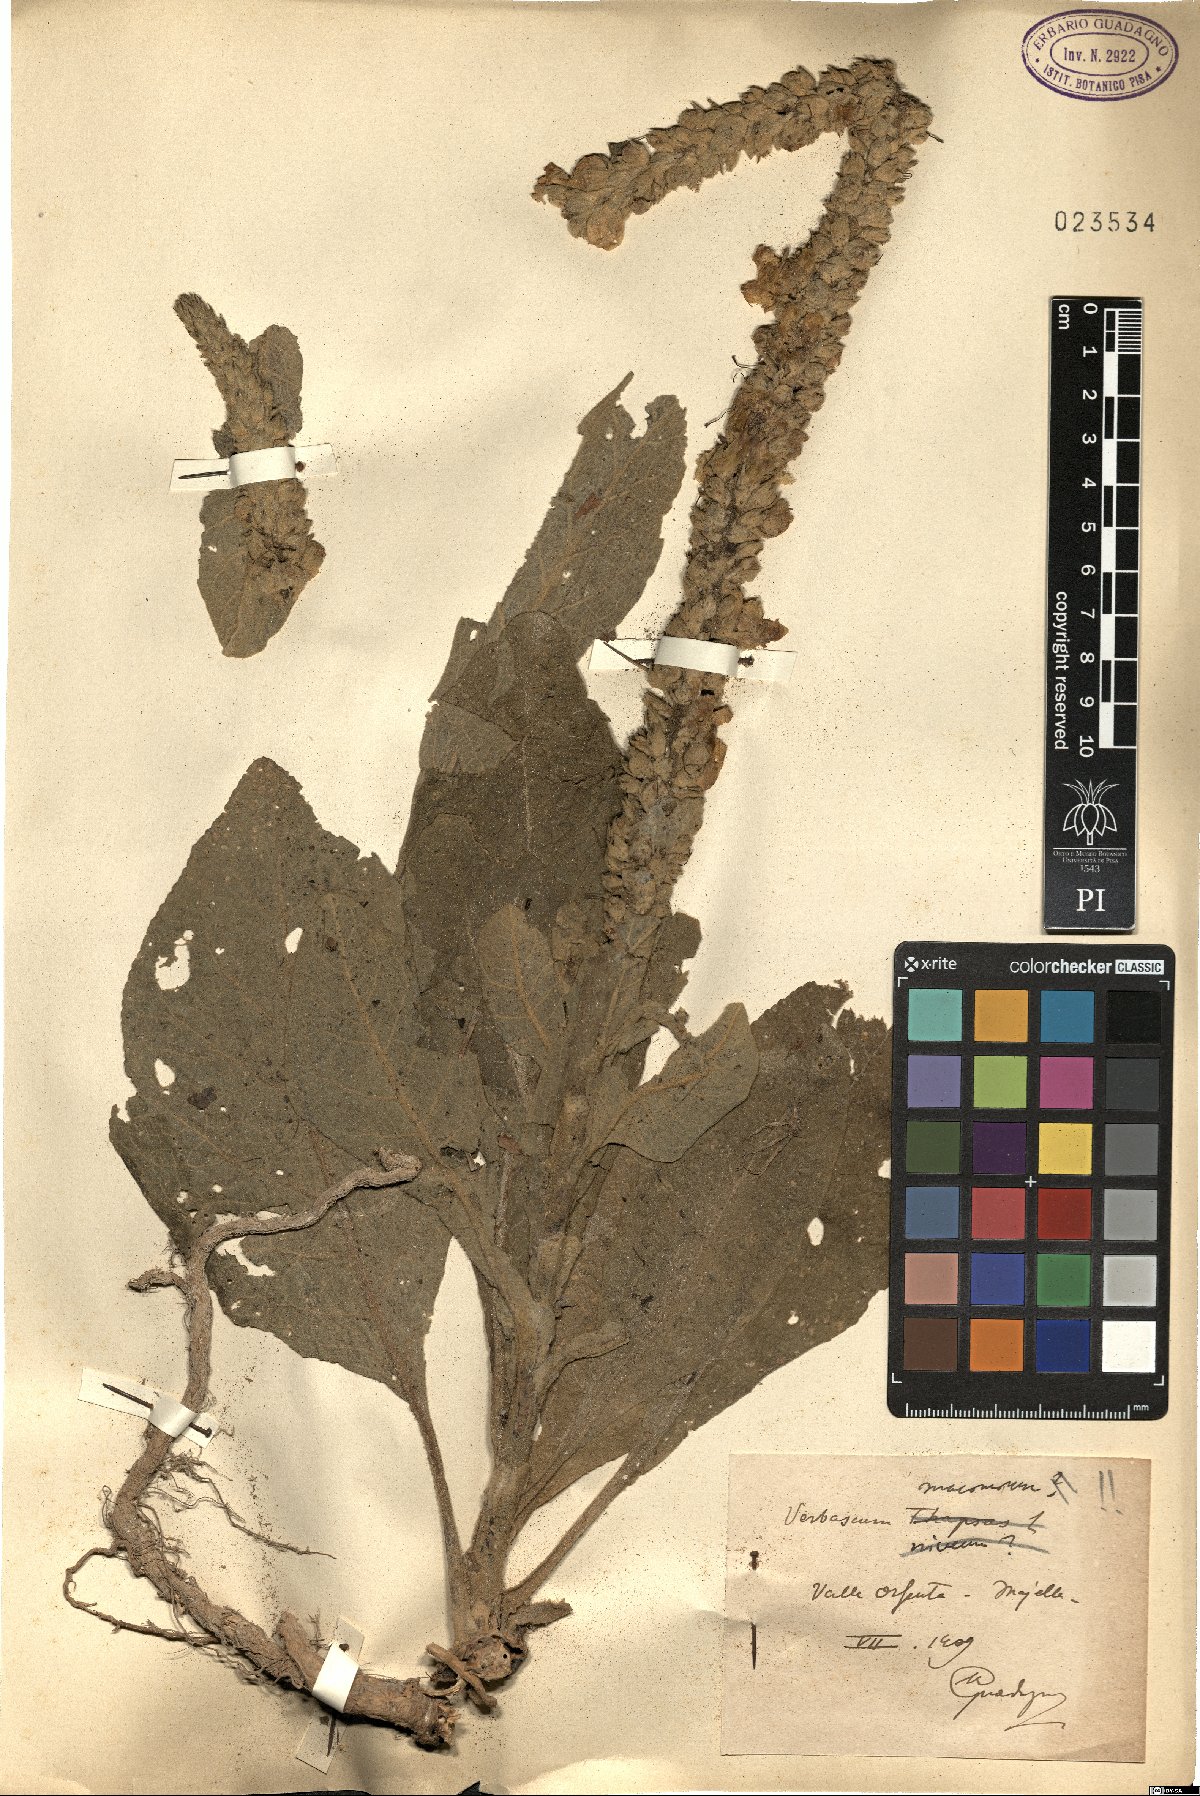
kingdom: Plantae
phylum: Tracheophyta
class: Magnoliopsida
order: Lamiales
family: Scrophulariaceae
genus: Verbascum
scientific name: Verbascum macrurum
